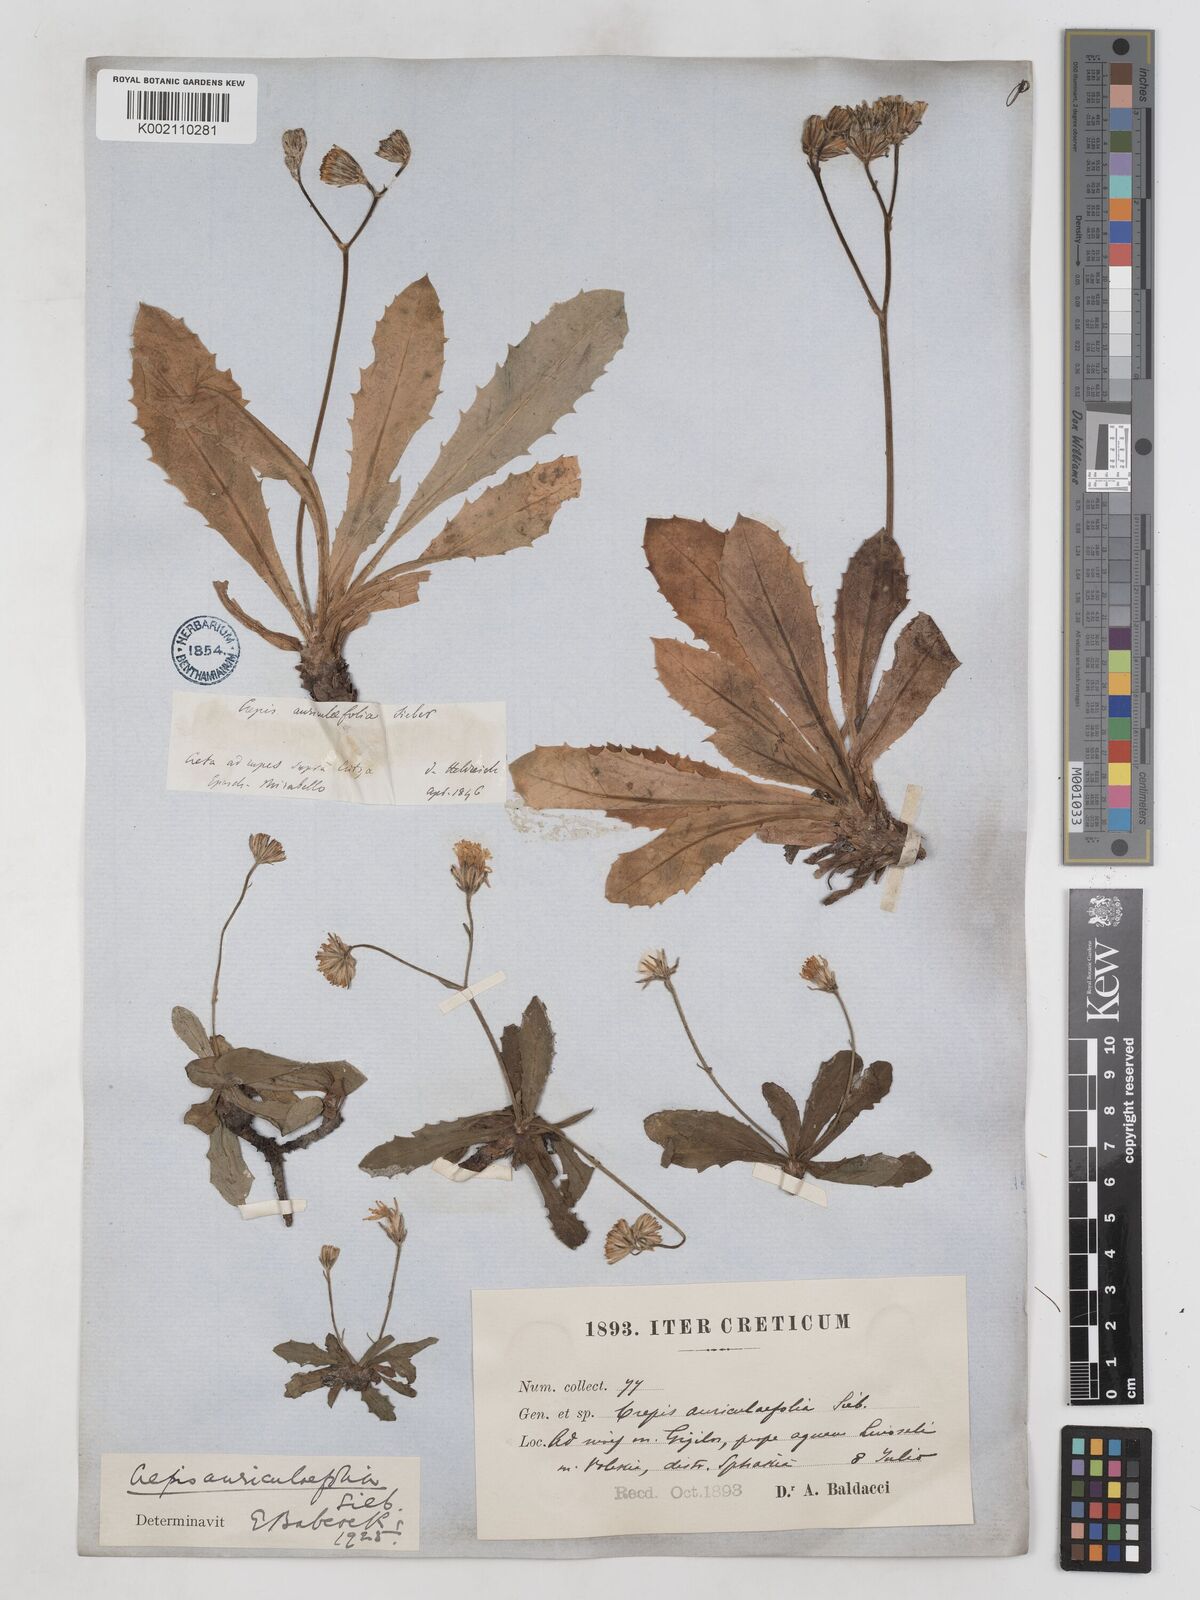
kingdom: Plantae
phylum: Tracheophyta
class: Magnoliopsida
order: Asterales
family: Asteraceae
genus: Crepis
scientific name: Crepis auriculifolia
